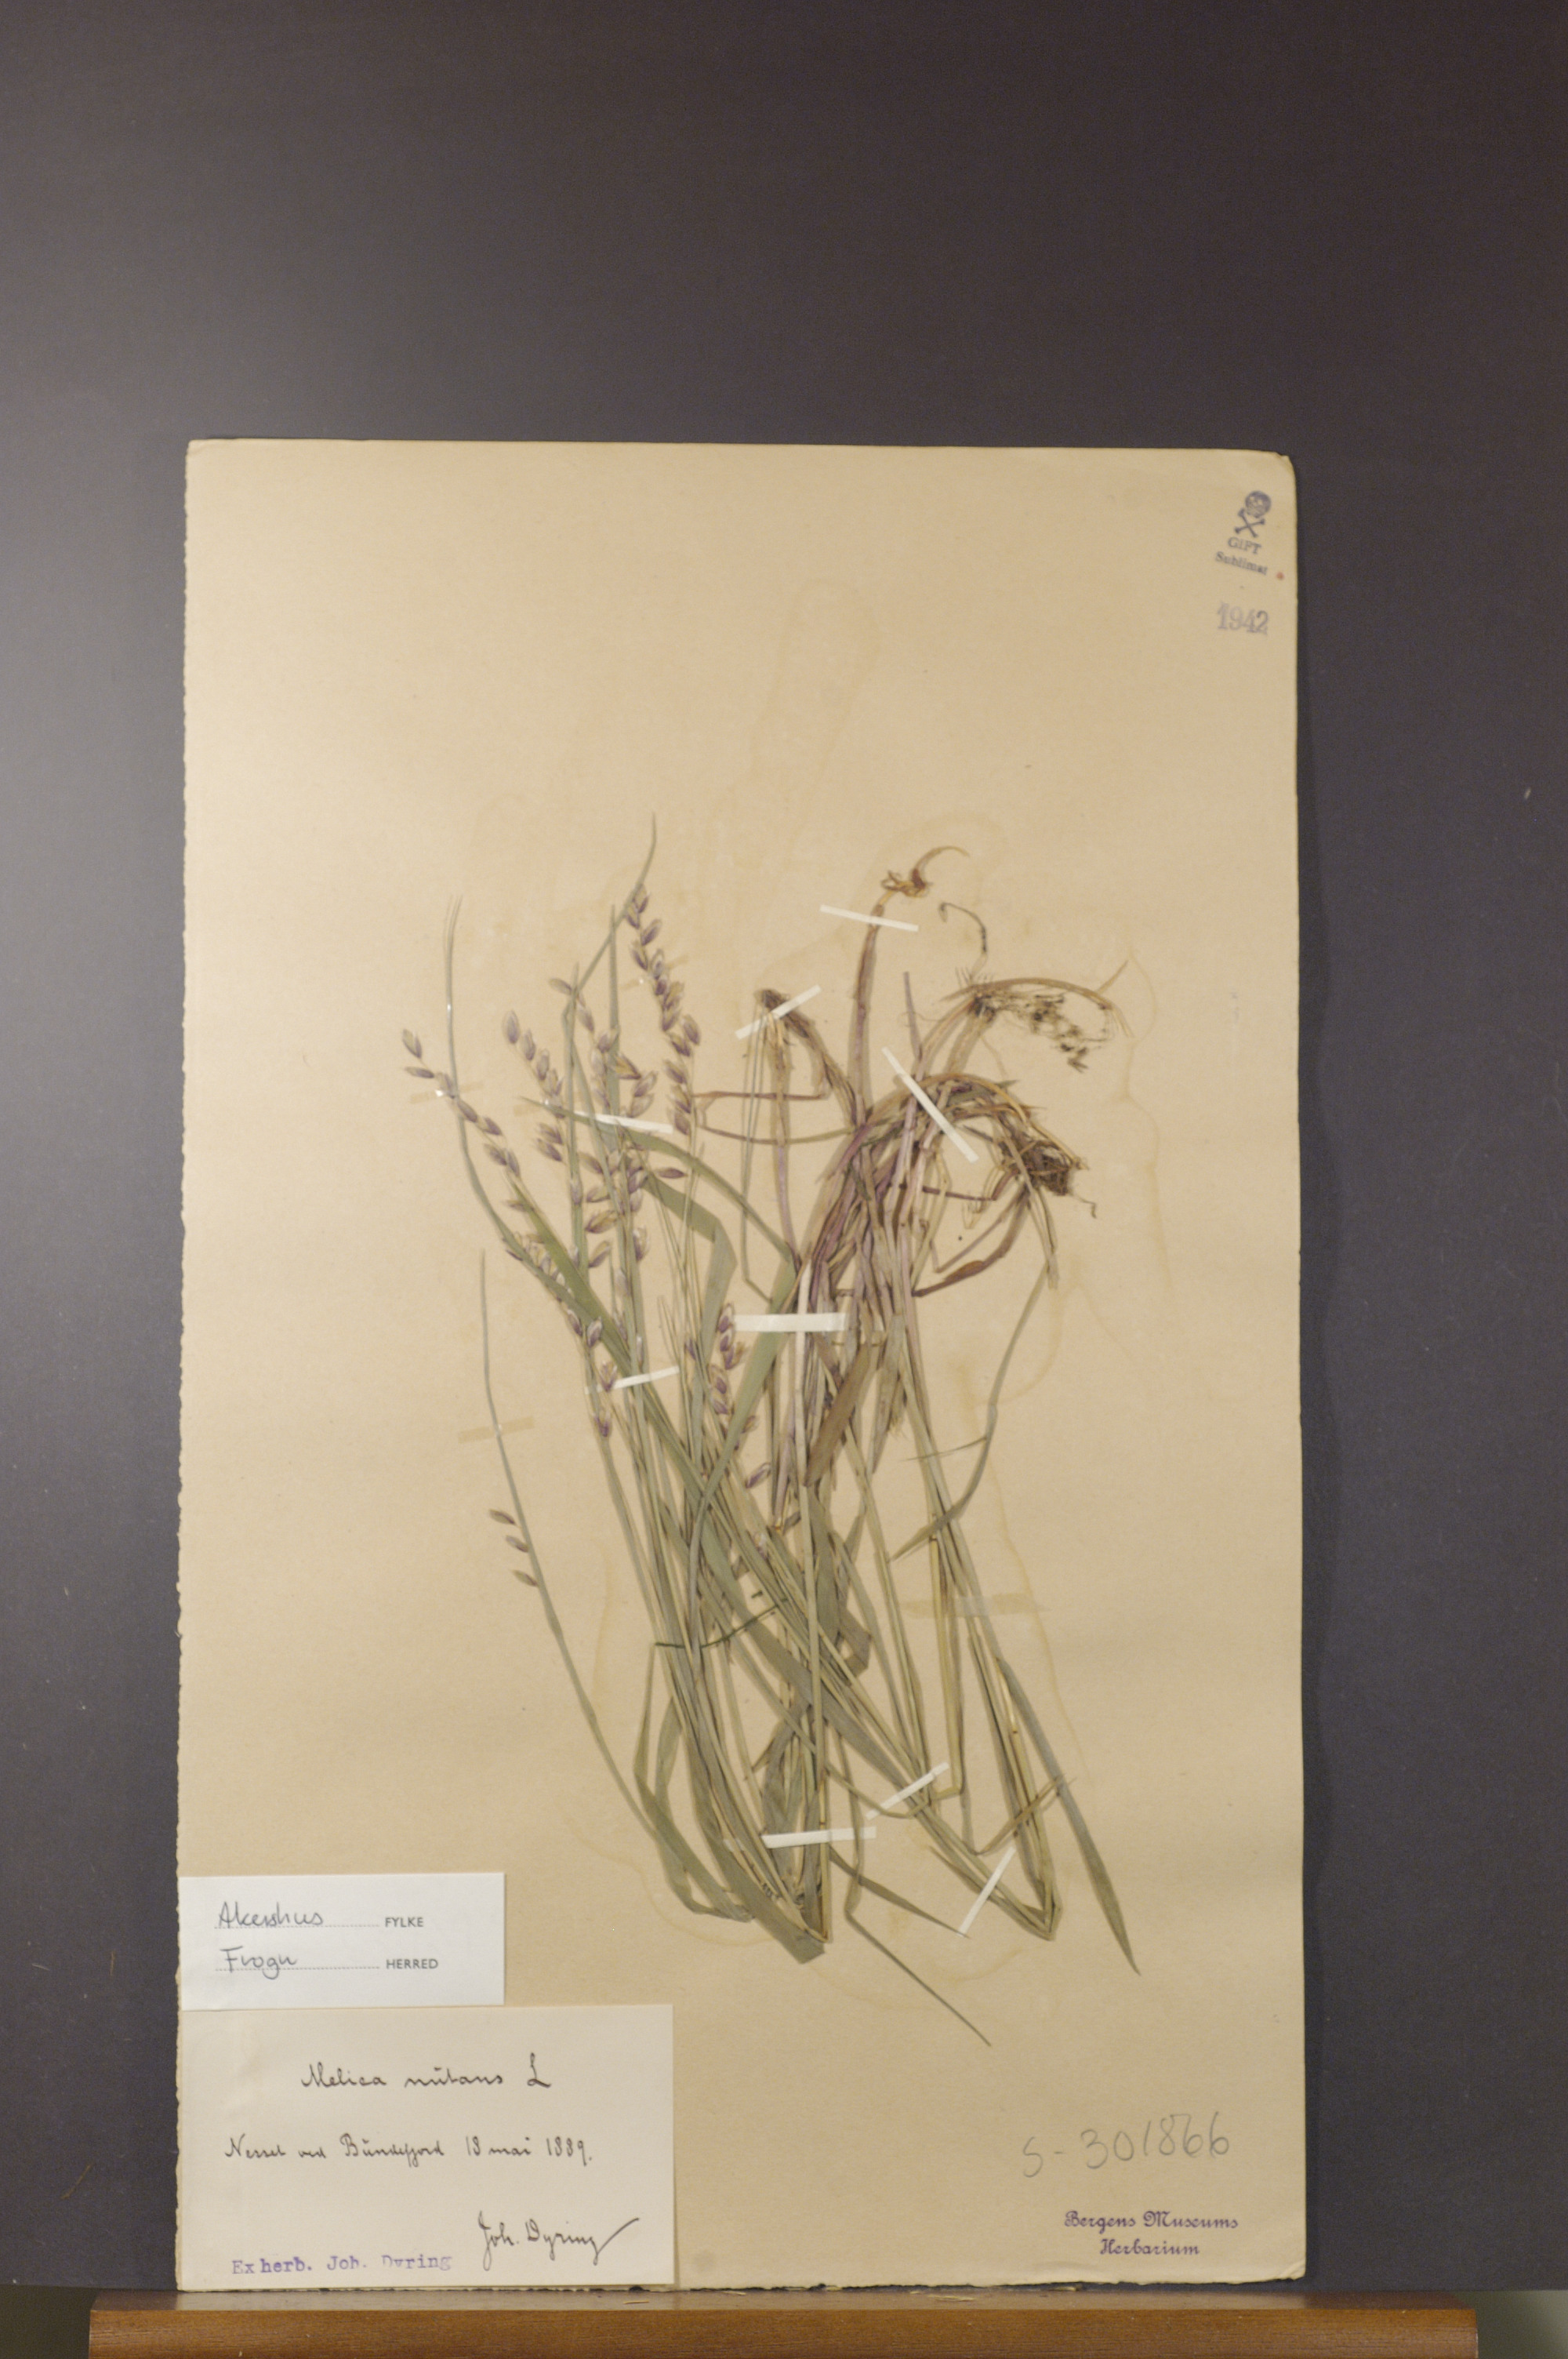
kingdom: Plantae
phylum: Tracheophyta
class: Liliopsida
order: Poales
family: Poaceae
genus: Melica
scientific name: Melica nutans
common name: Mountain melick
